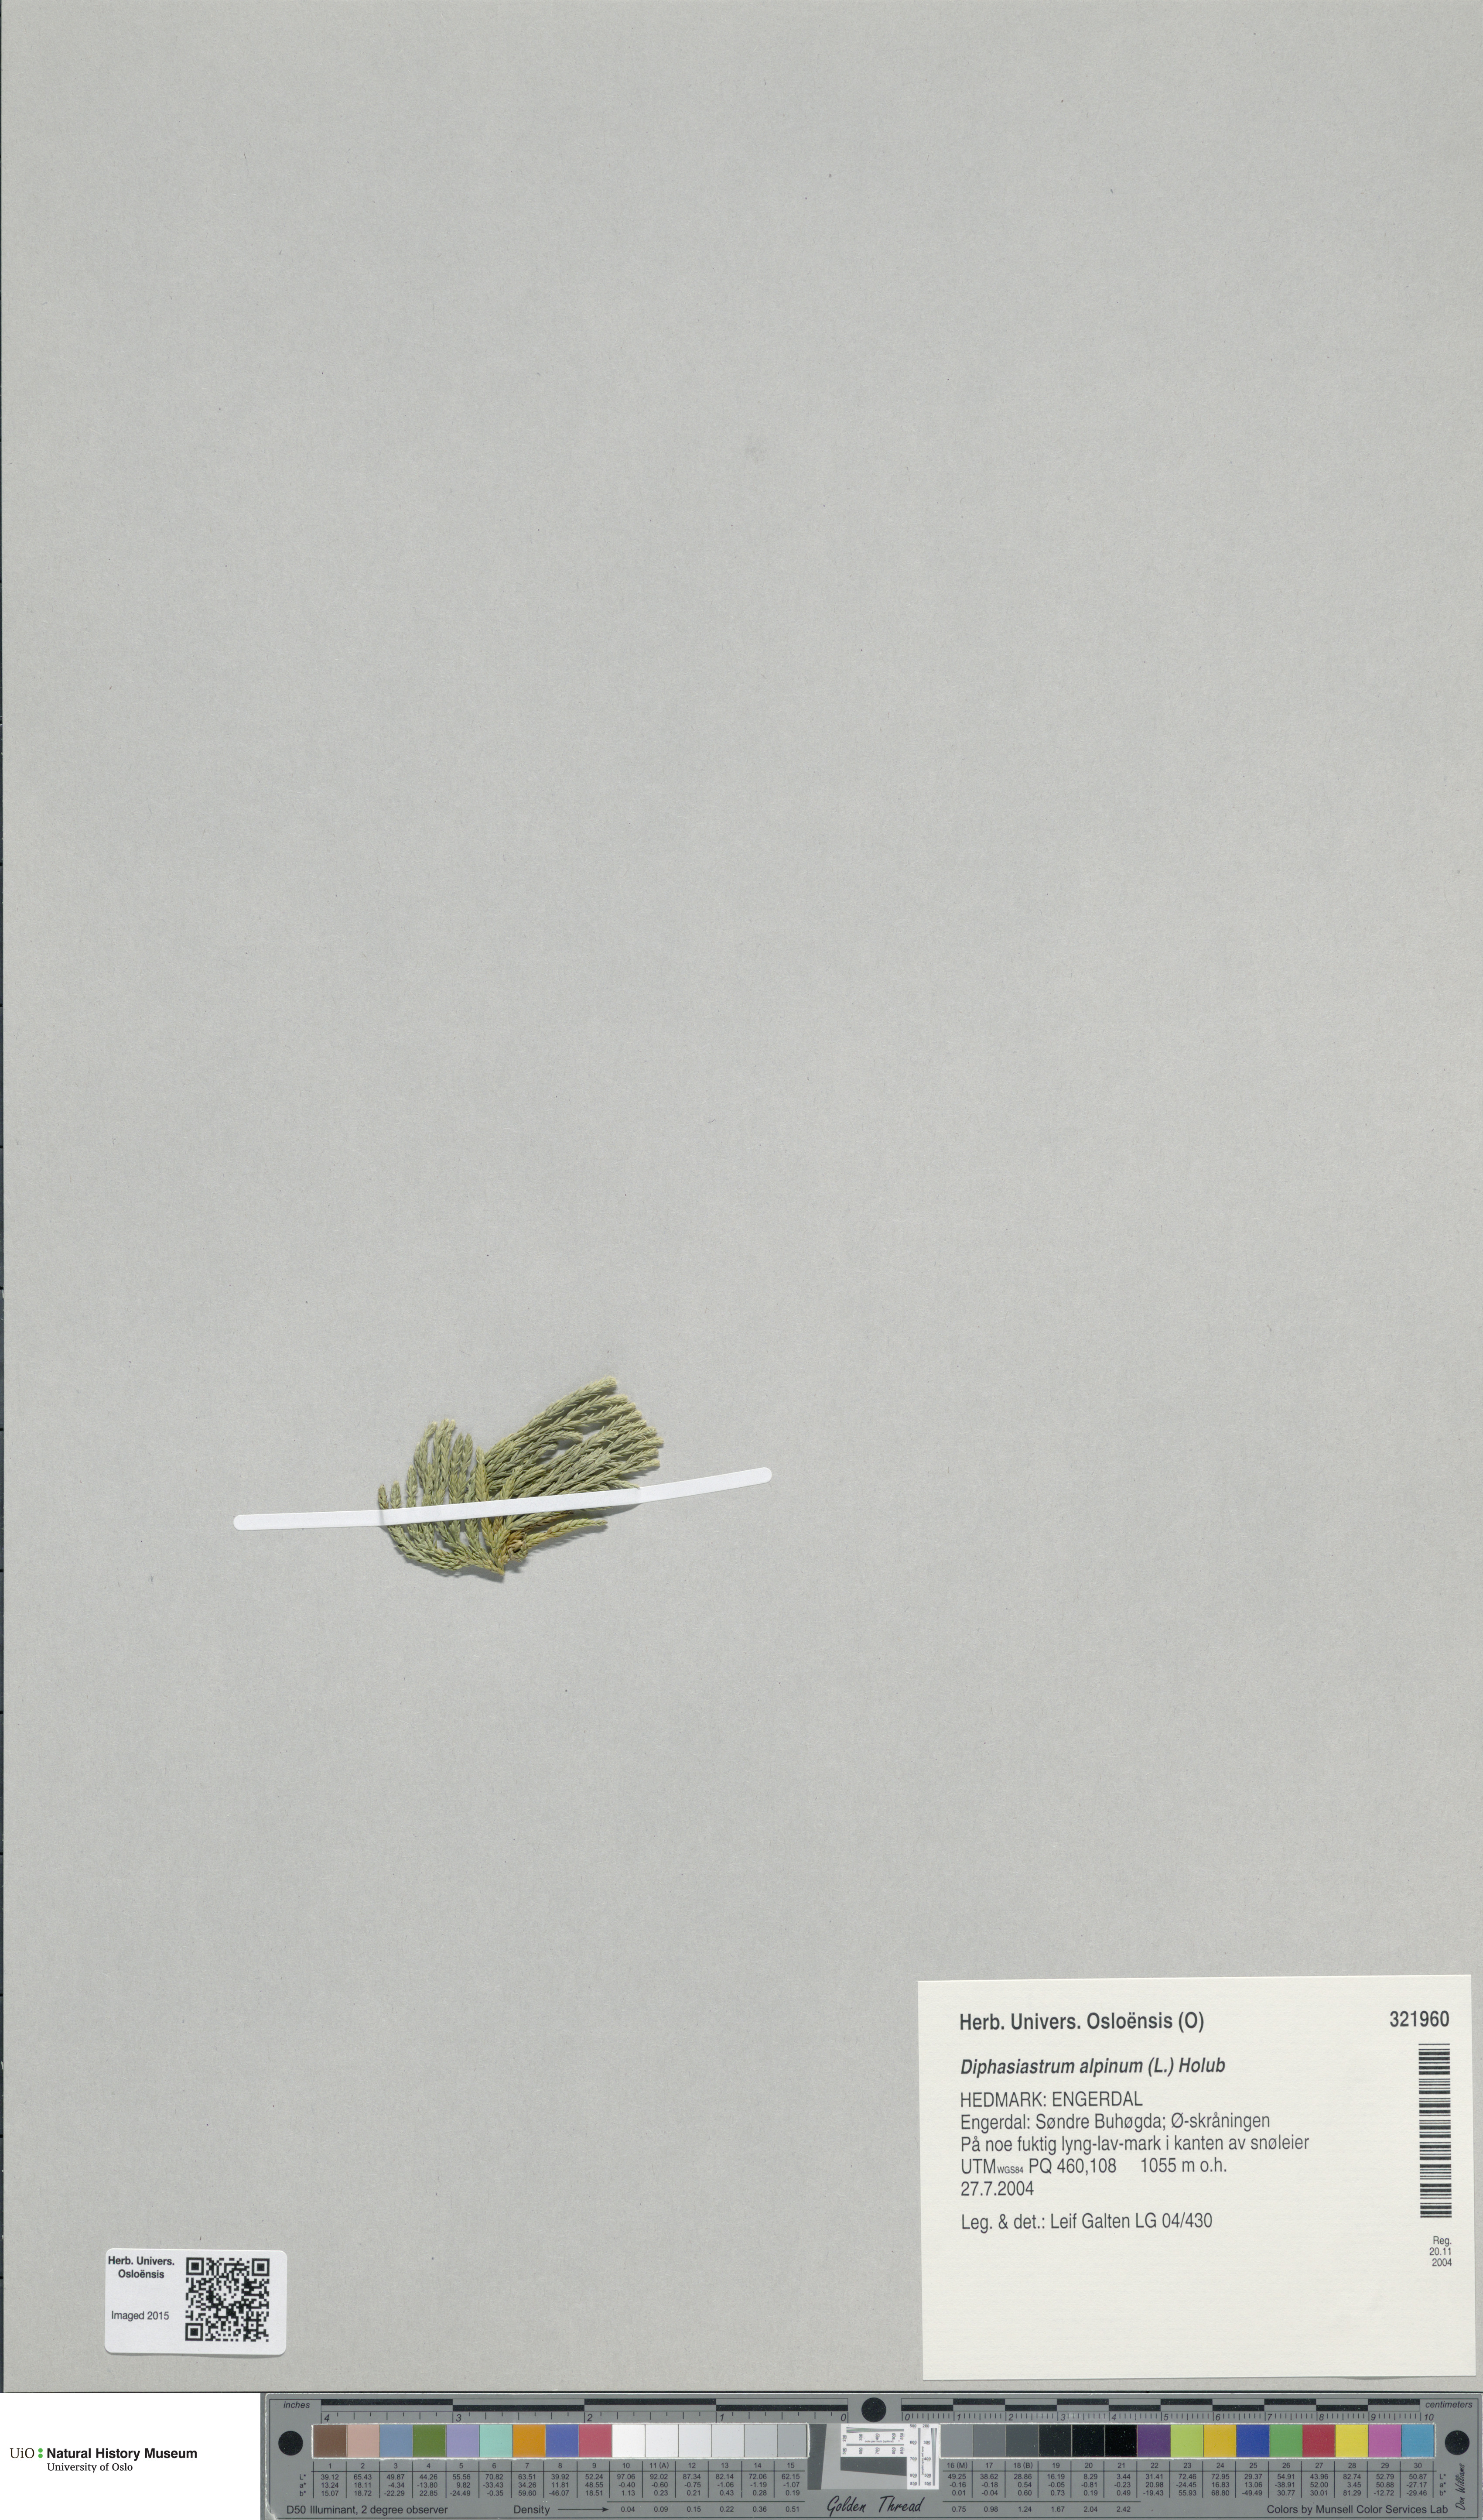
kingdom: Plantae
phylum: Tracheophyta
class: Lycopodiopsida
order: Lycopodiales
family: Lycopodiaceae
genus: Diphasiastrum
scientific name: Diphasiastrum alpinum
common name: Alpine clubmoss
